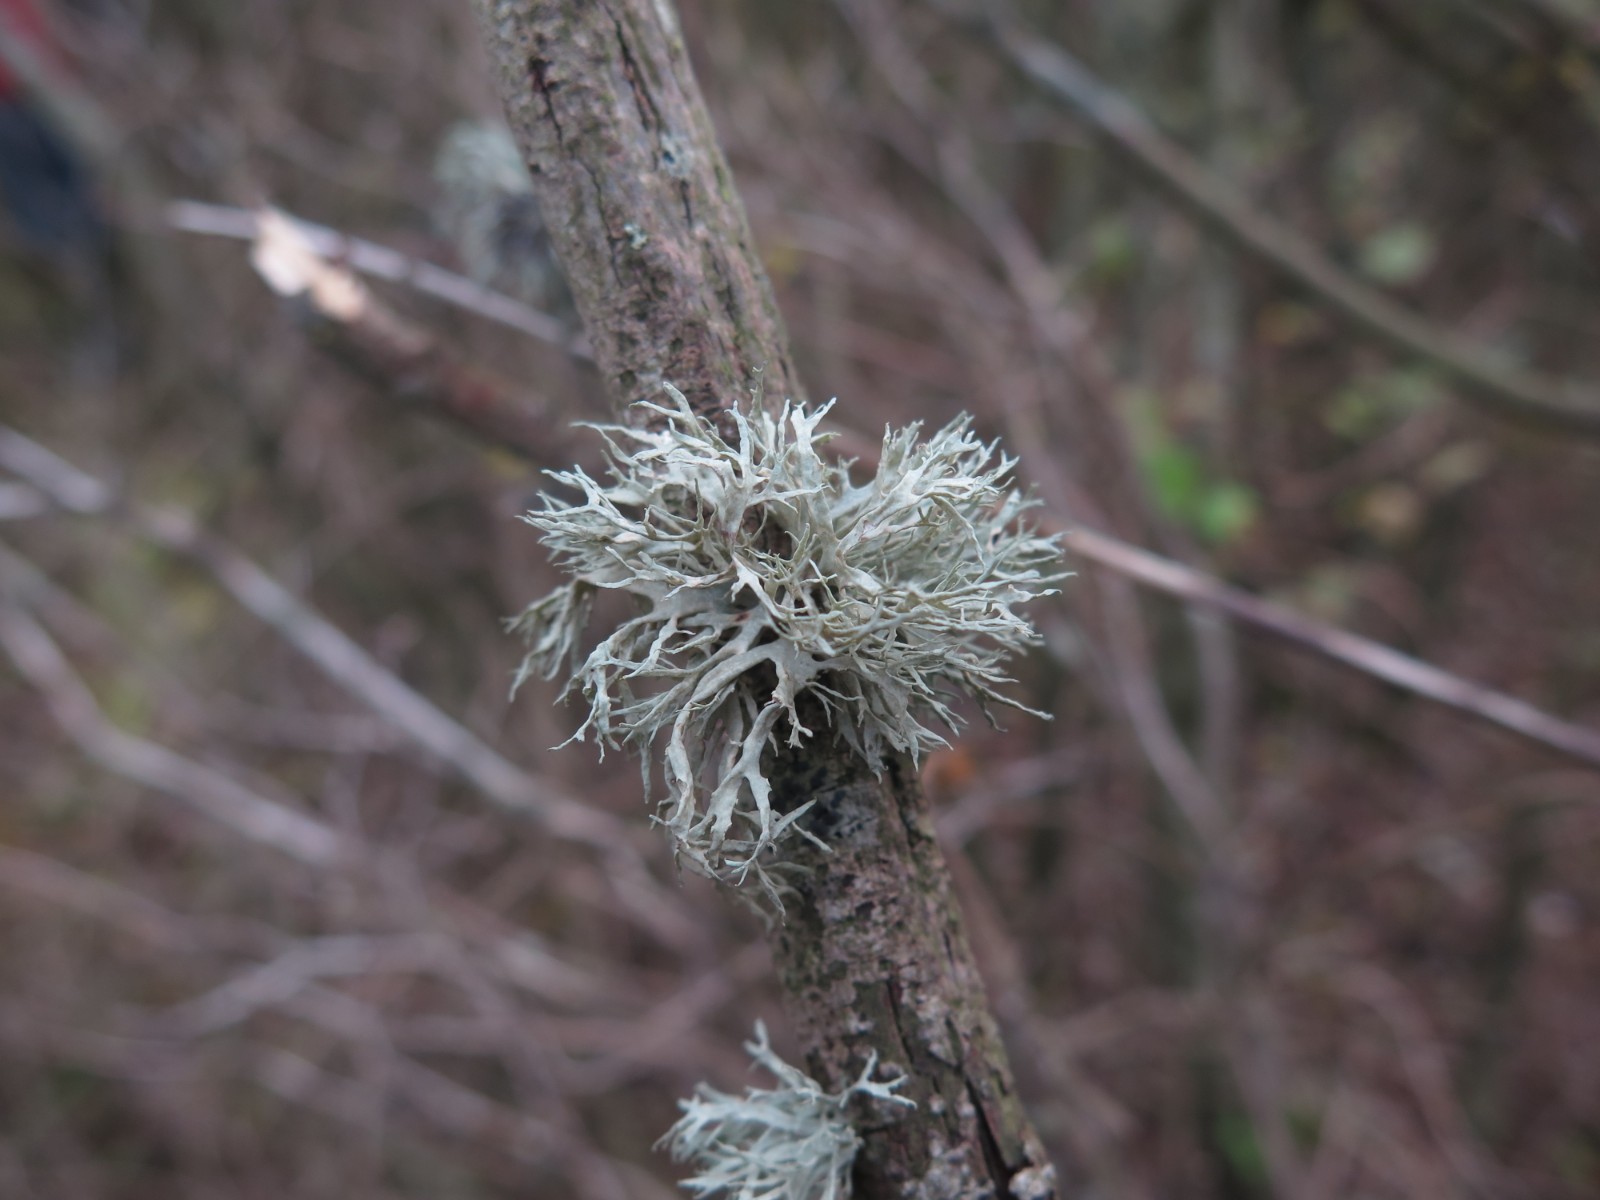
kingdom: Fungi
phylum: Ascomycota
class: Lecanoromycetes
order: Lecanorales
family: Parmeliaceae
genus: Evernia
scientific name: Evernia prunastri
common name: almindelig slåenlav
